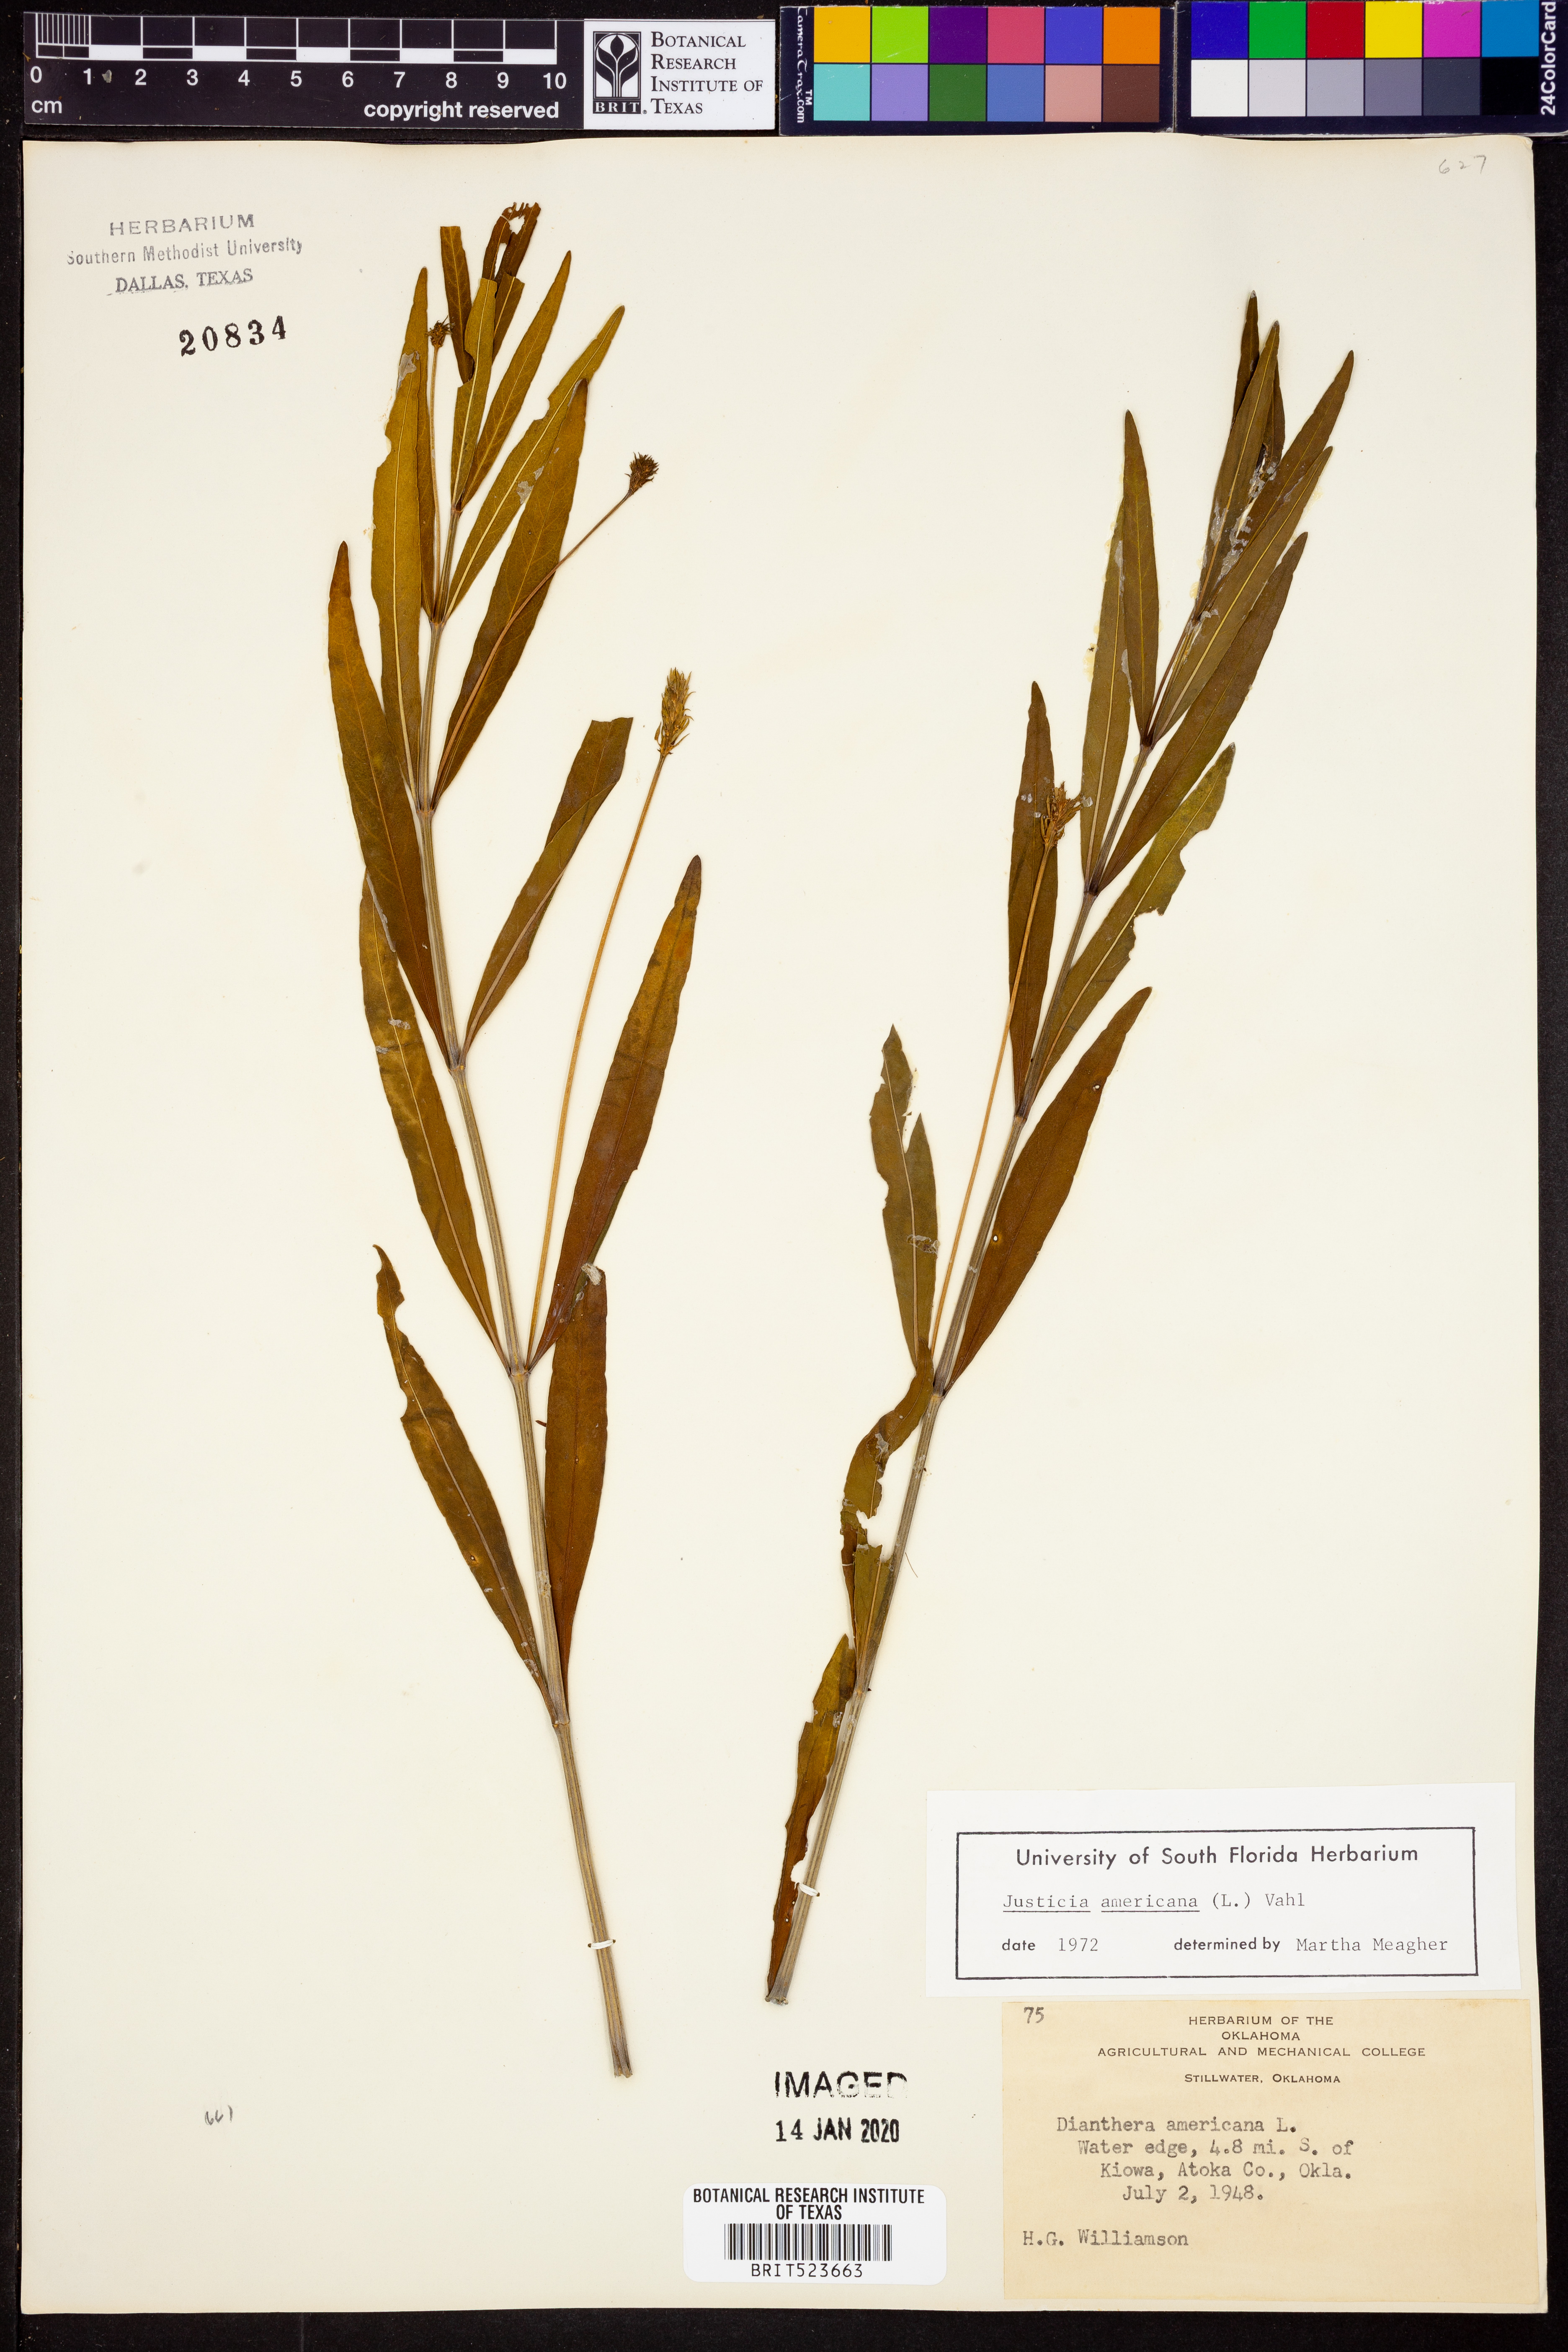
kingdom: Plantae
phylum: Tracheophyta
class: Magnoliopsida
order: Lamiales
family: Acanthaceae
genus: Dianthera
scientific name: Dianthera americana
